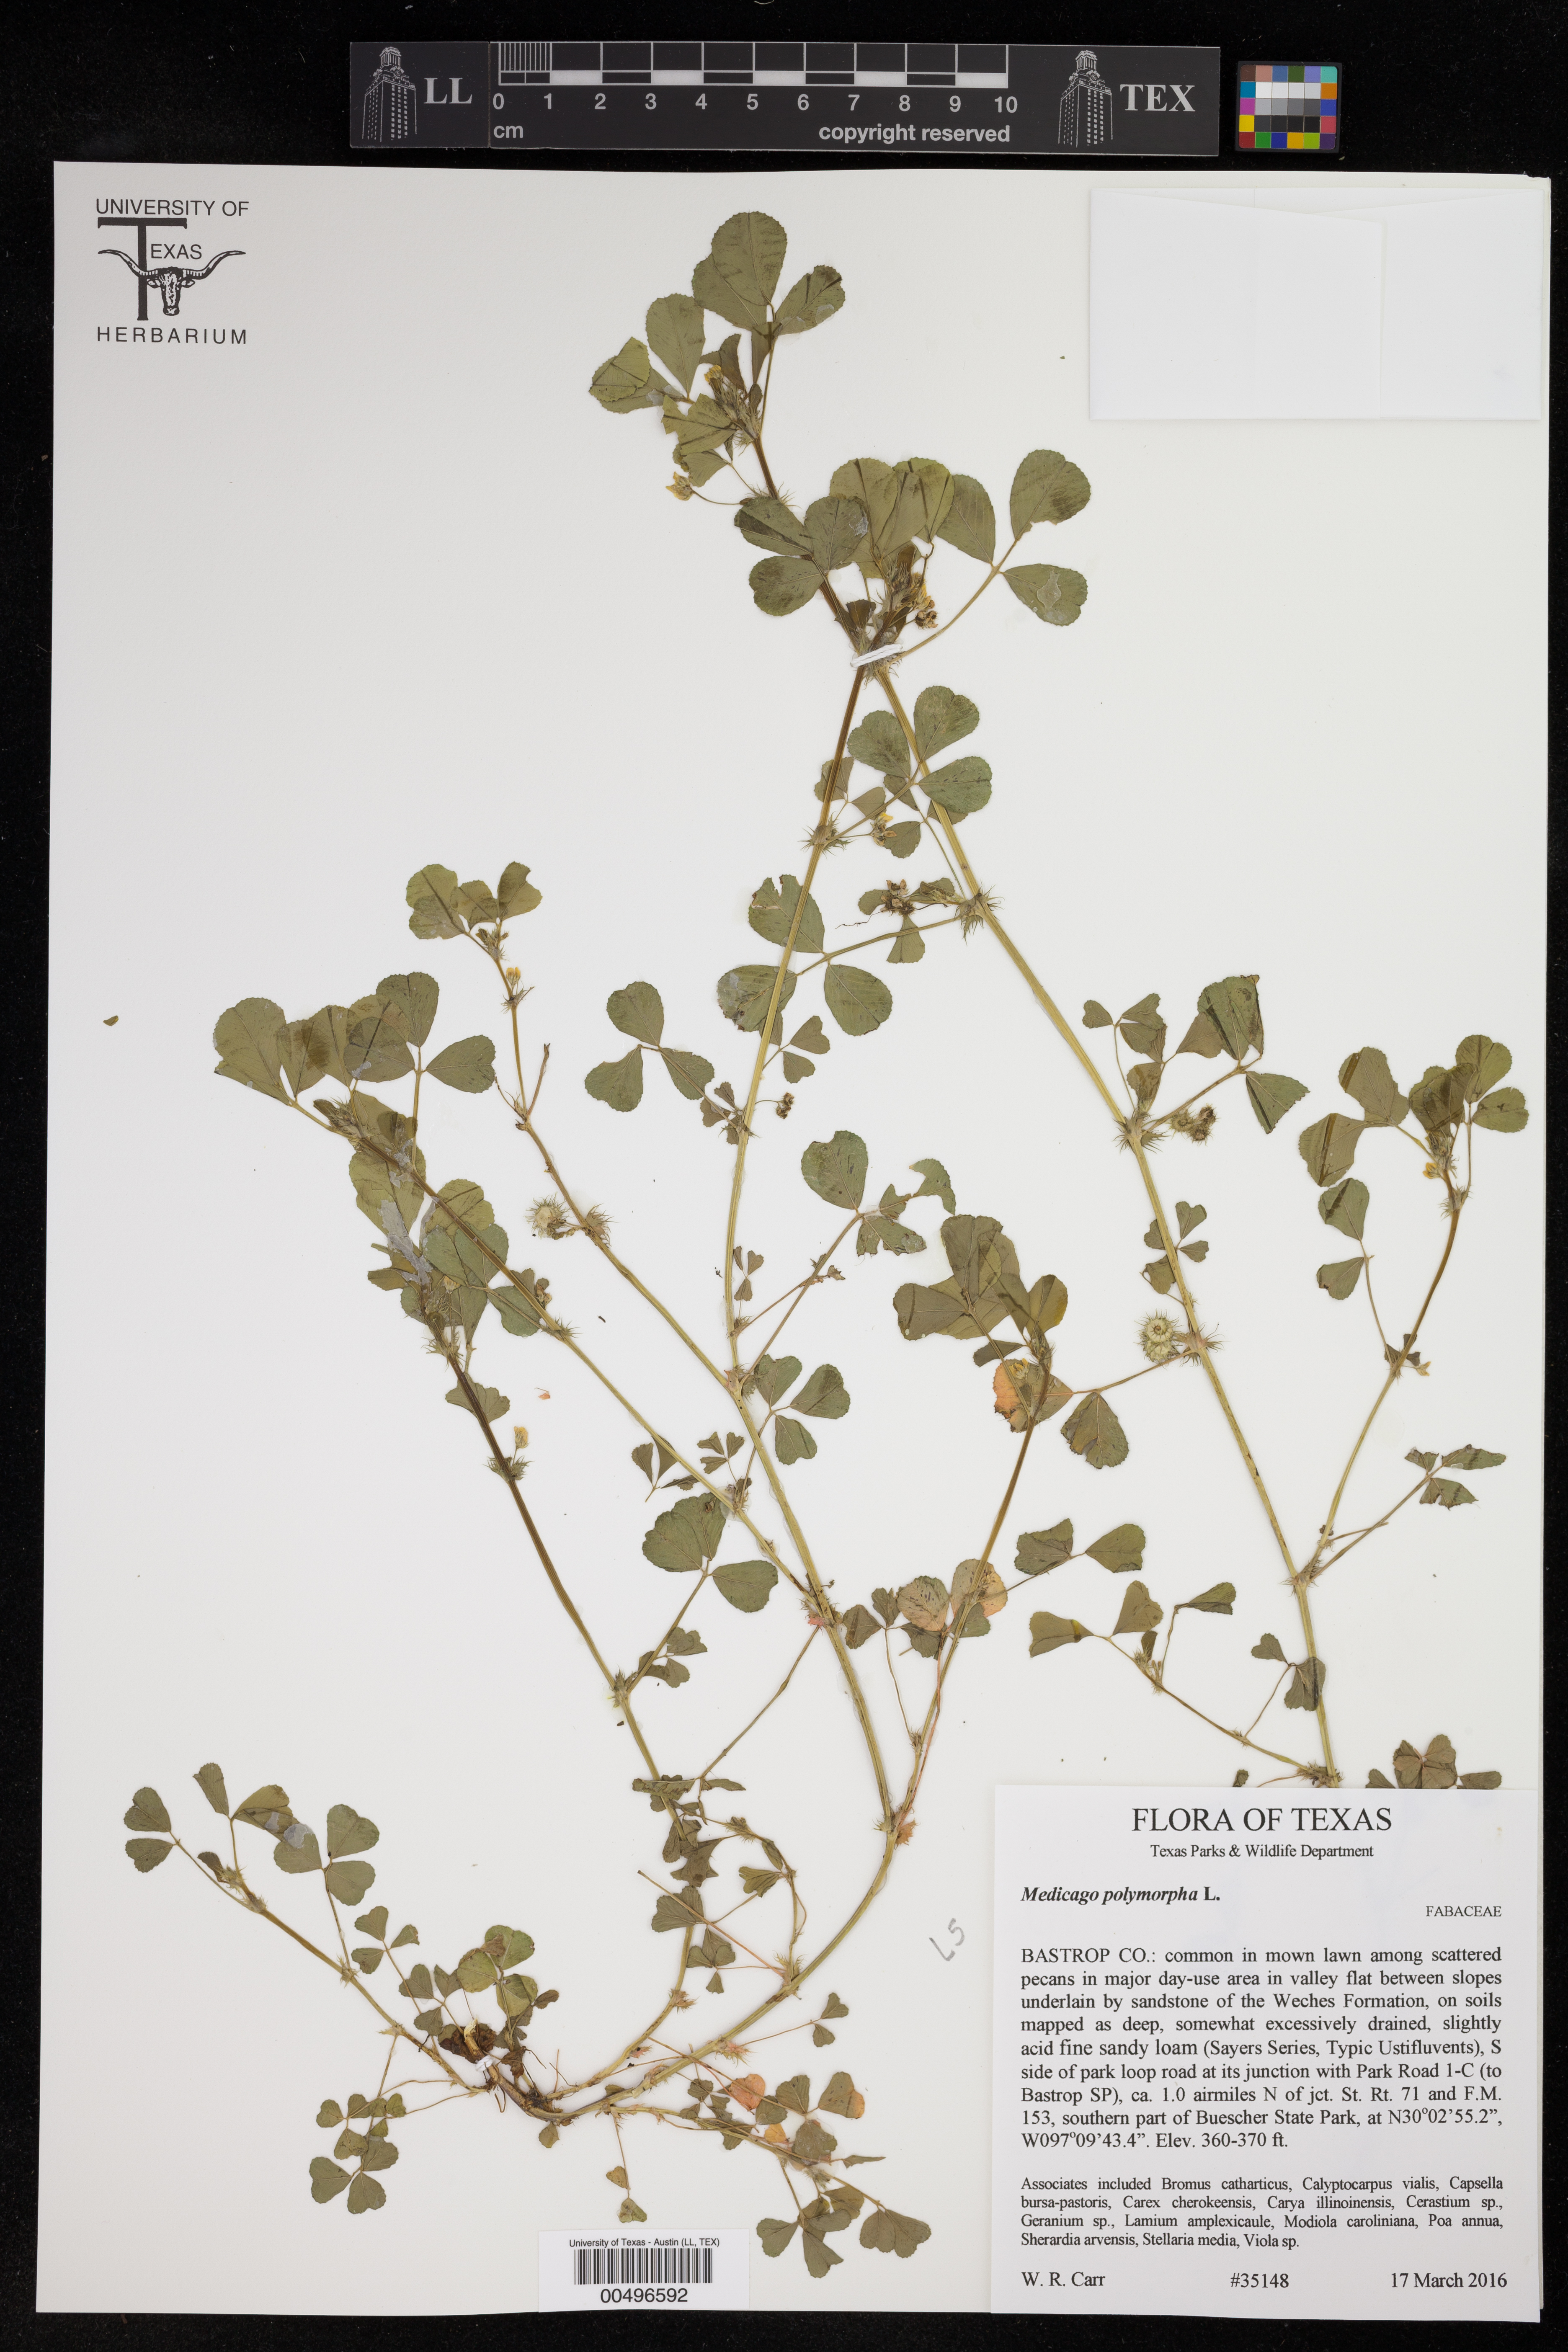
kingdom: Plantae
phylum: Tracheophyta
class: Magnoliopsida
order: Fabales
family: Fabaceae
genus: Medicago
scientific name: Medicago polymorpha
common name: Burclover
